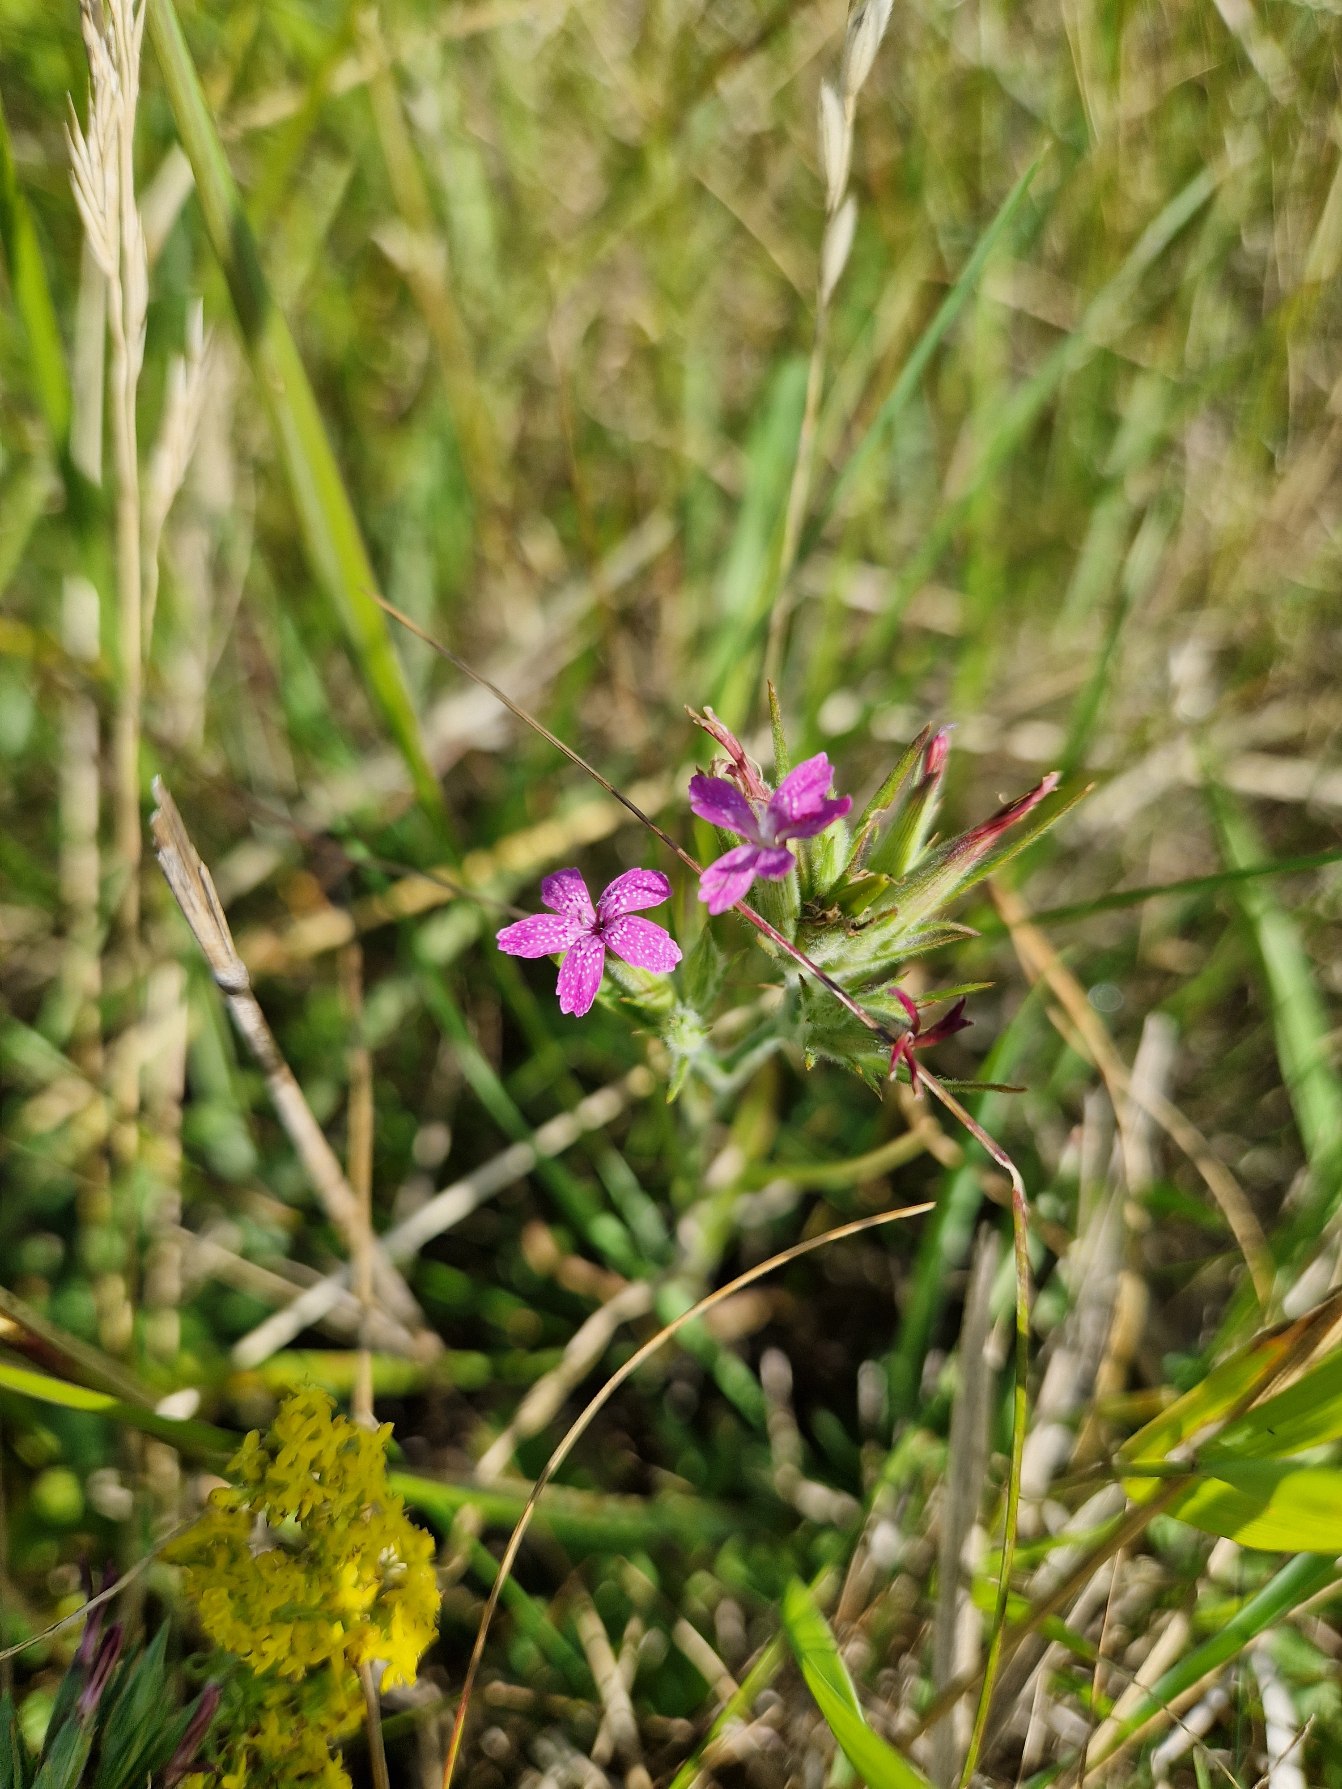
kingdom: Plantae
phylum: Tracheophyta
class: Magnoliopsida
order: Caryophyllales
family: Caryophyllaceae
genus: Dianthus
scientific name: Dianthus armeria
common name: Kost-nellike
